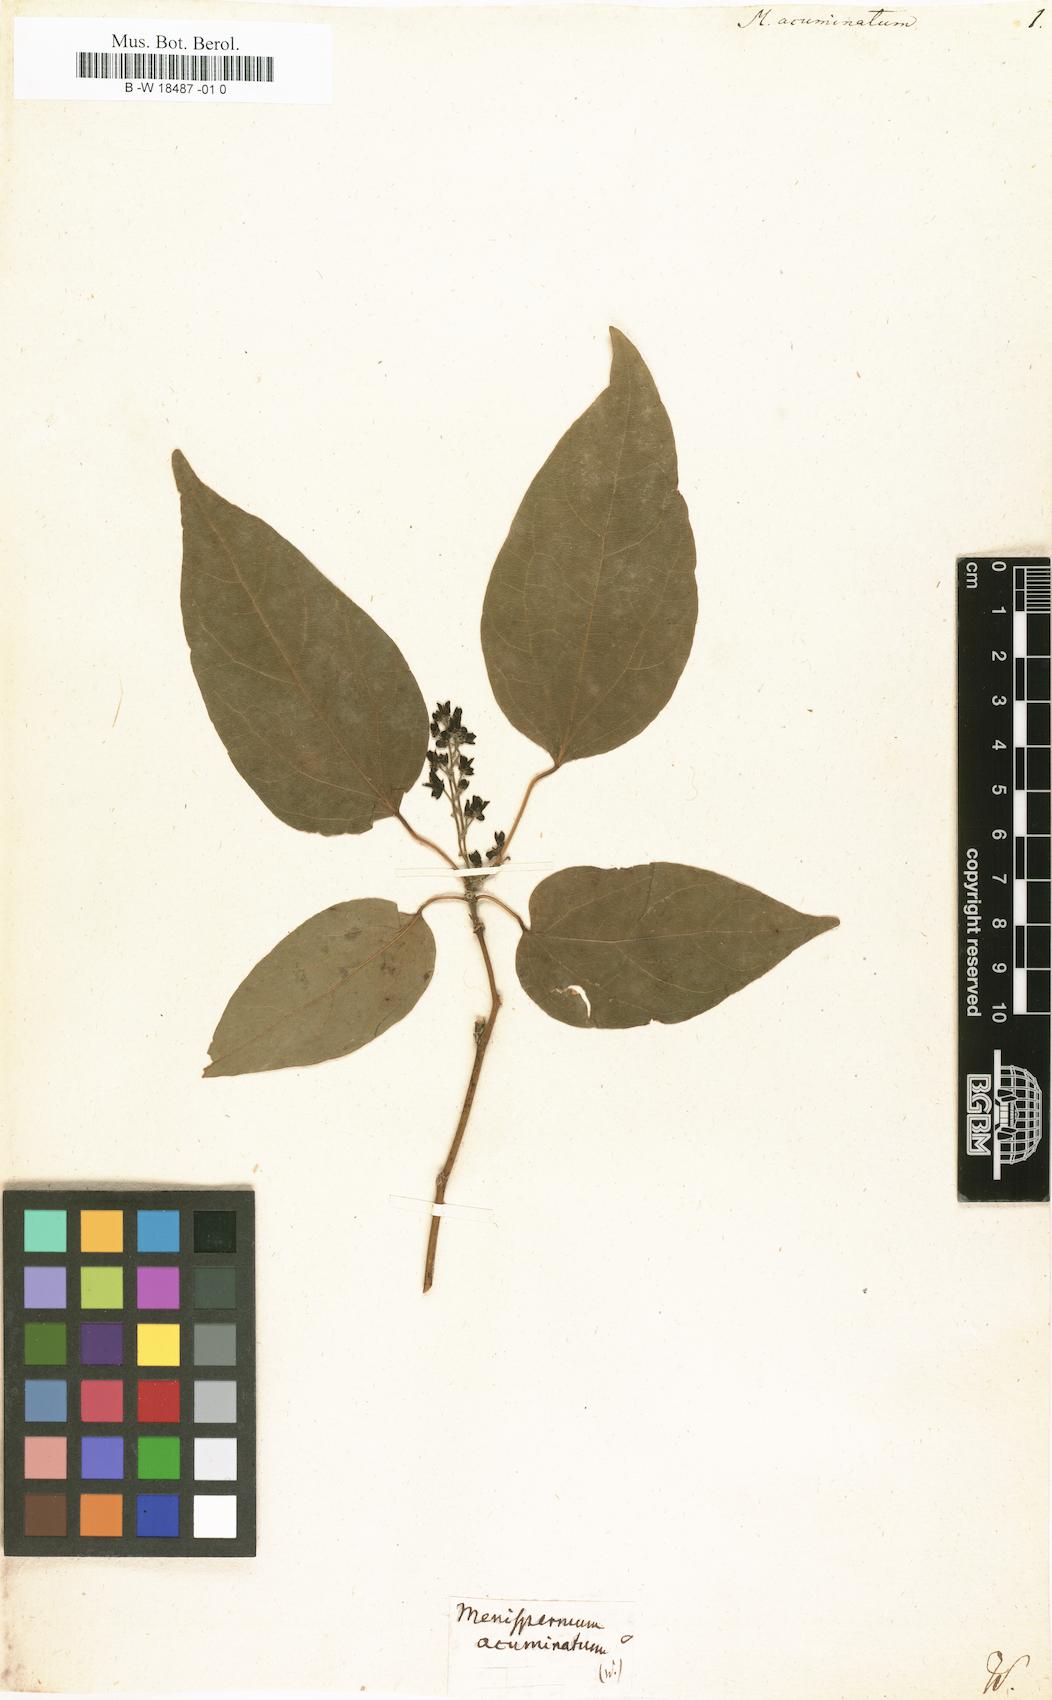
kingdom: Plantae
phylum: Tracheophyta
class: Magnoliopsida
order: Ranunculales
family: Menispermaceae
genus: Tiliacora
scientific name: Tiliacora acuminata
